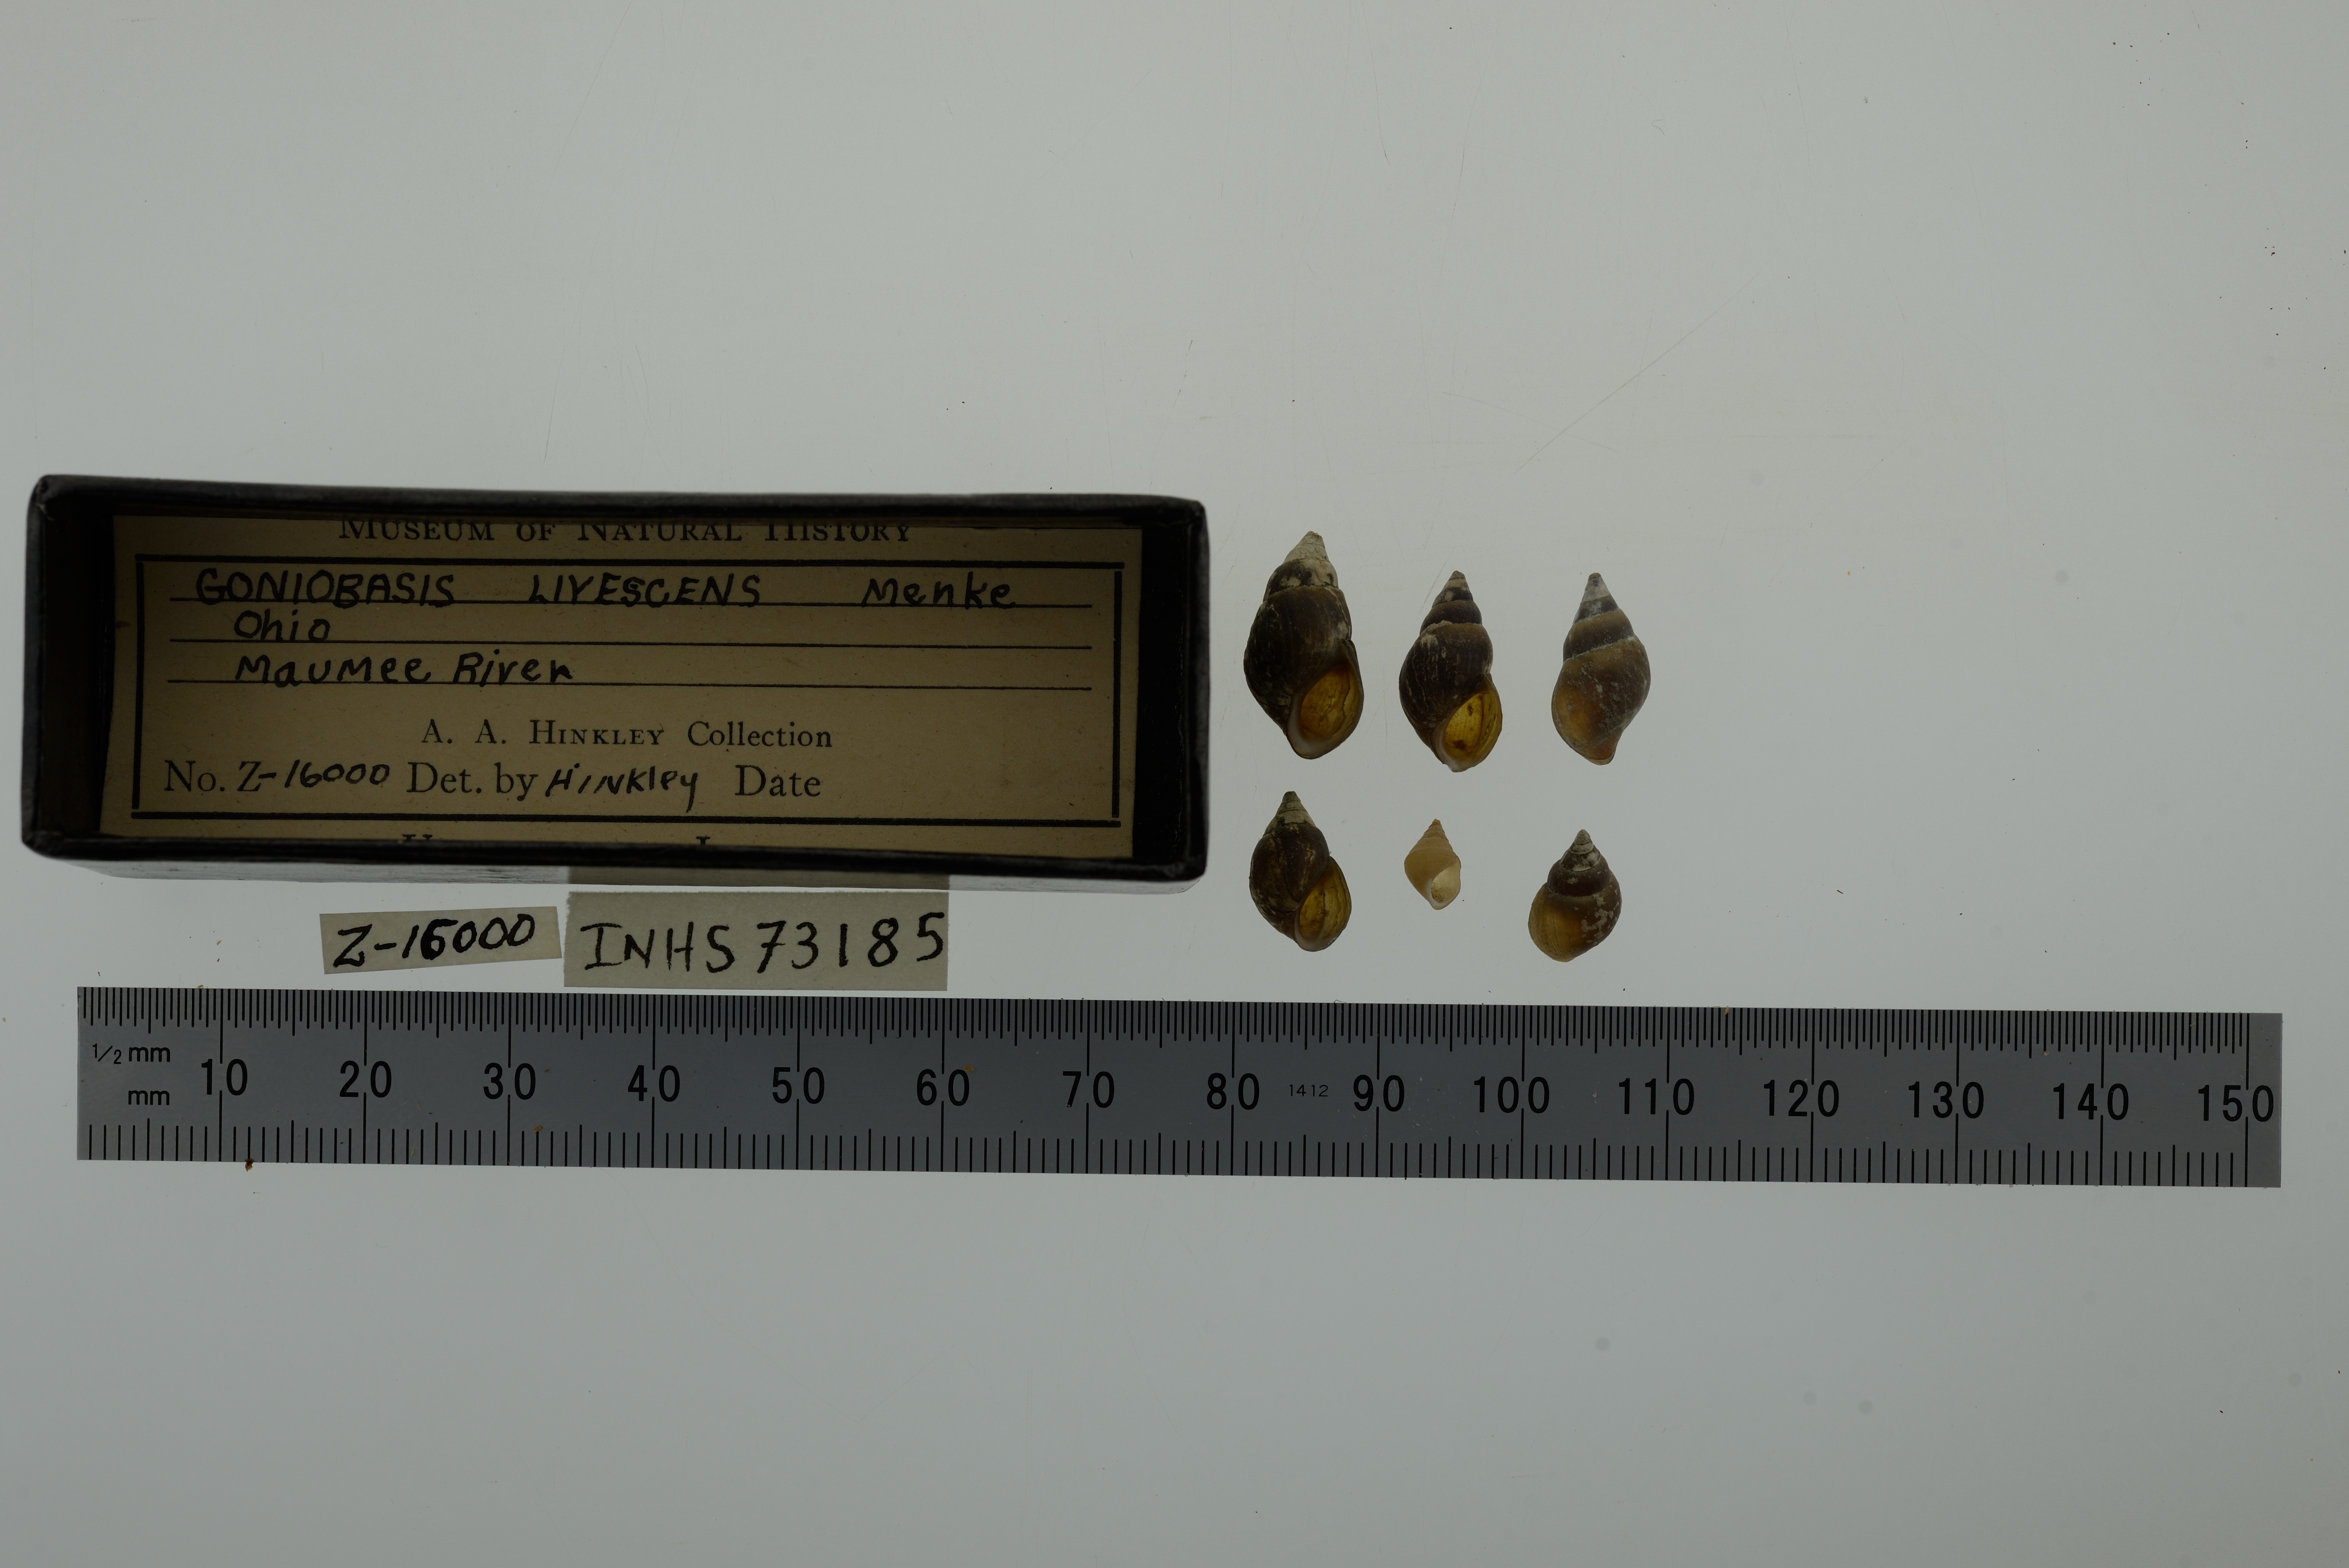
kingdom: Animalia
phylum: Mollusca
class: Gastropoda
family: Pleuroceridae
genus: Elimia
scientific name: Elimia livescens
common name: Liver elimia
